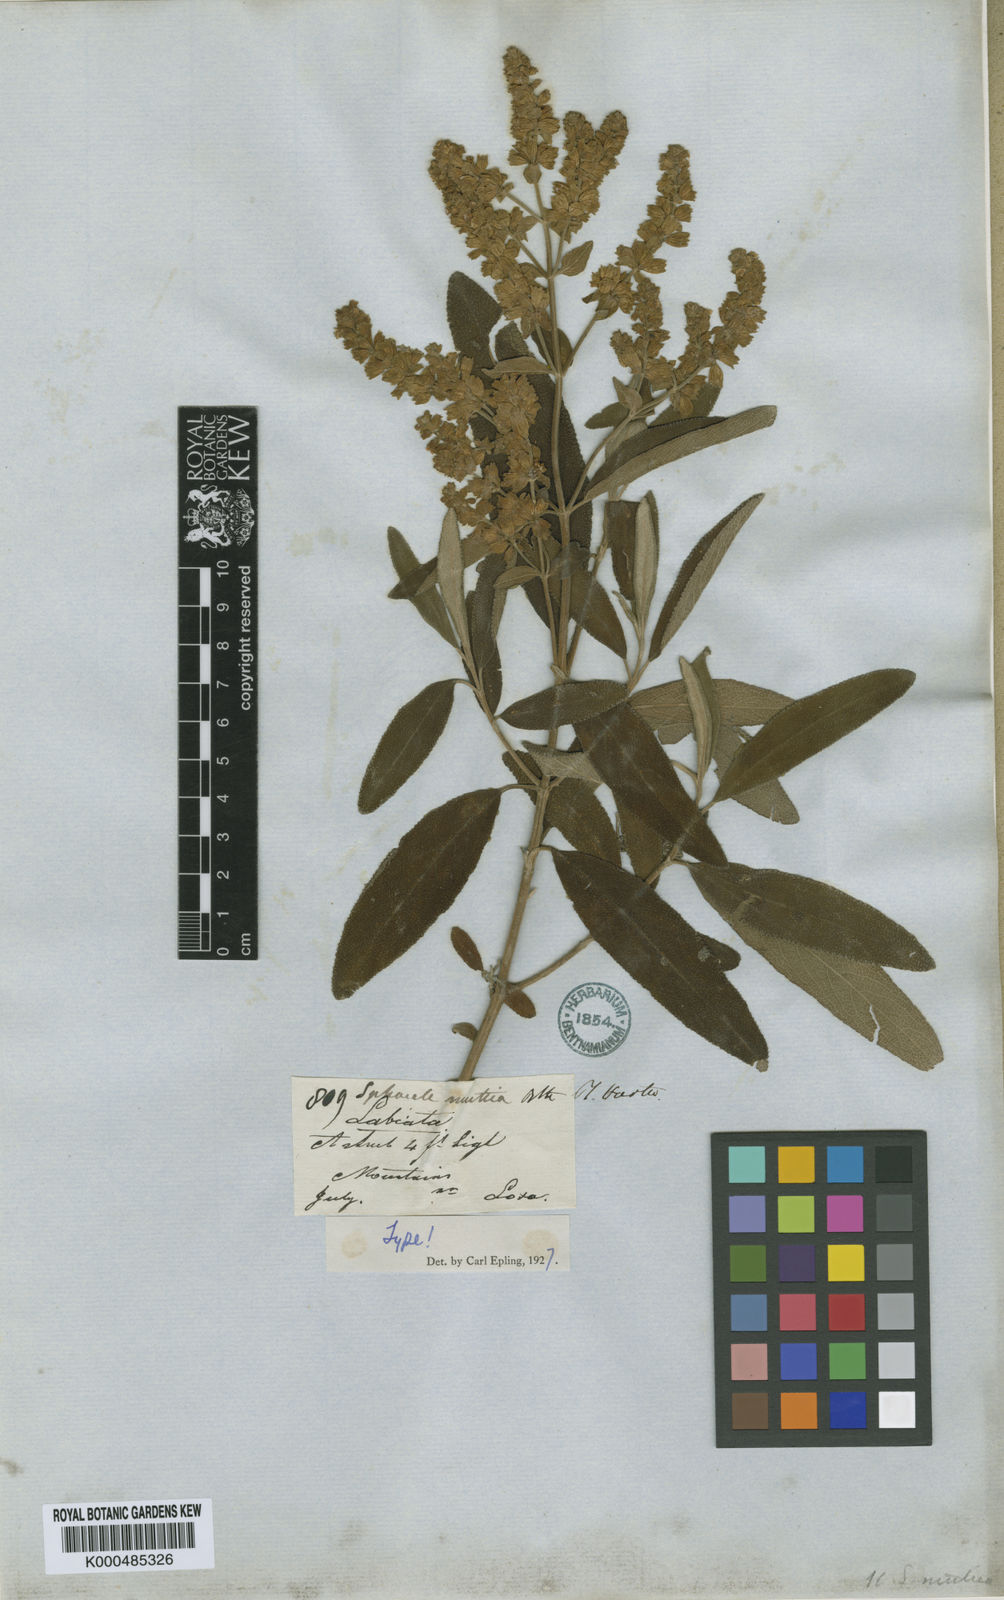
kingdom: Plantae
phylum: Tracheophyta
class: Magnoliopsida
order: Lamiales
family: Lamiaceae
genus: Lepechinia
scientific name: Lepechinia mutica
